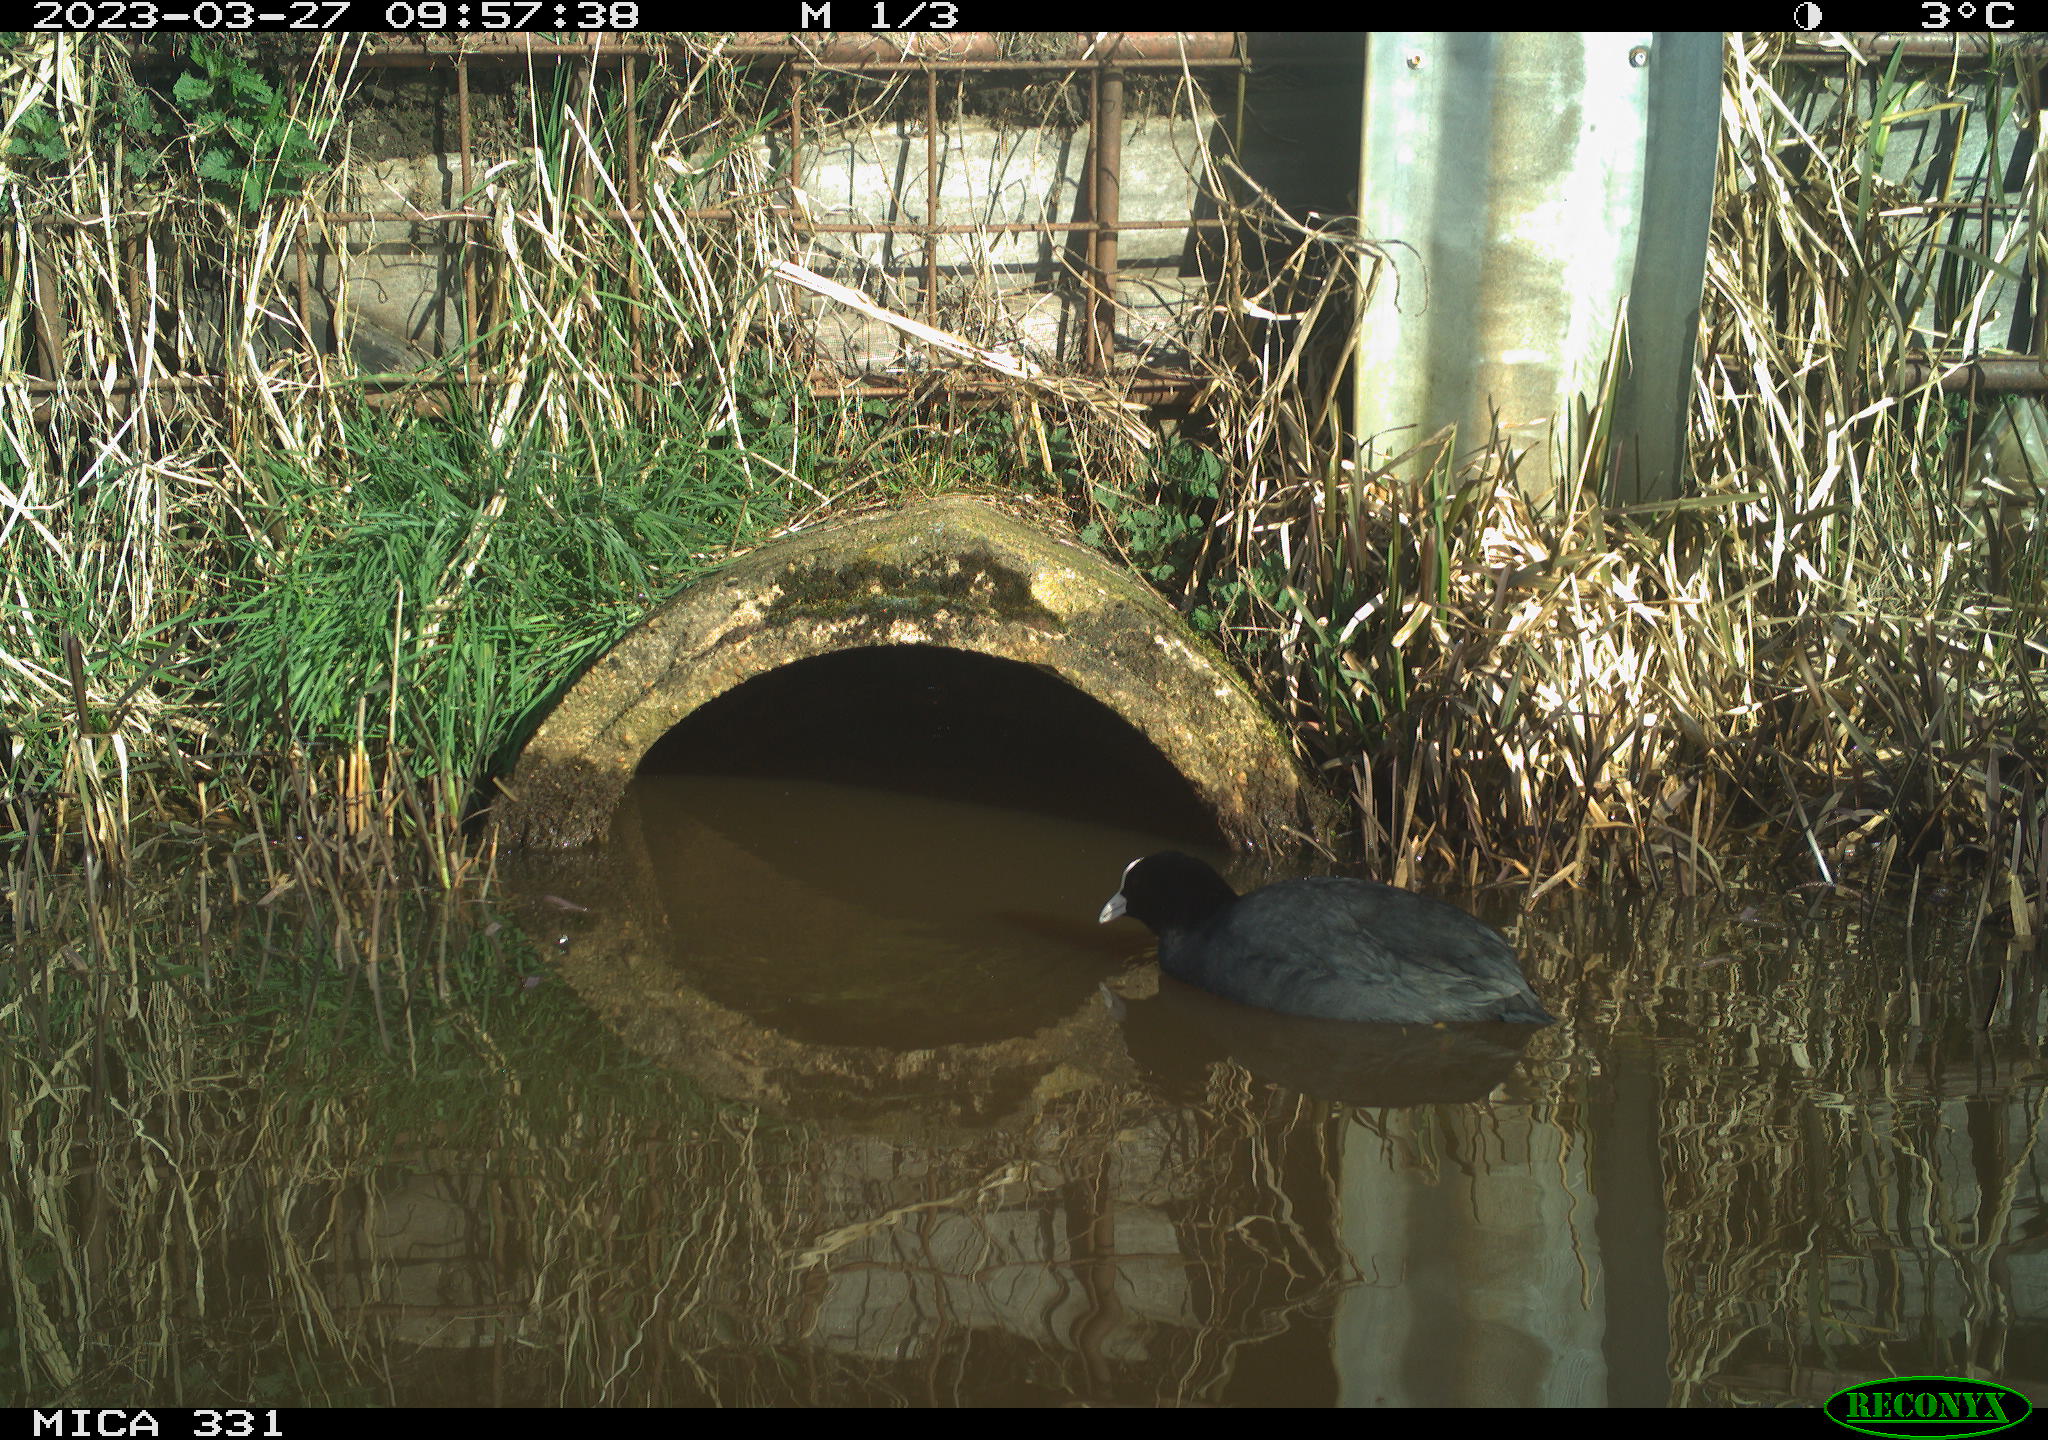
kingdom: Animalia
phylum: Chordata
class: Aves
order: Gruiformes
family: Rallidae
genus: Fulica
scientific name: Fulica atra
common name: Eurasian coot
